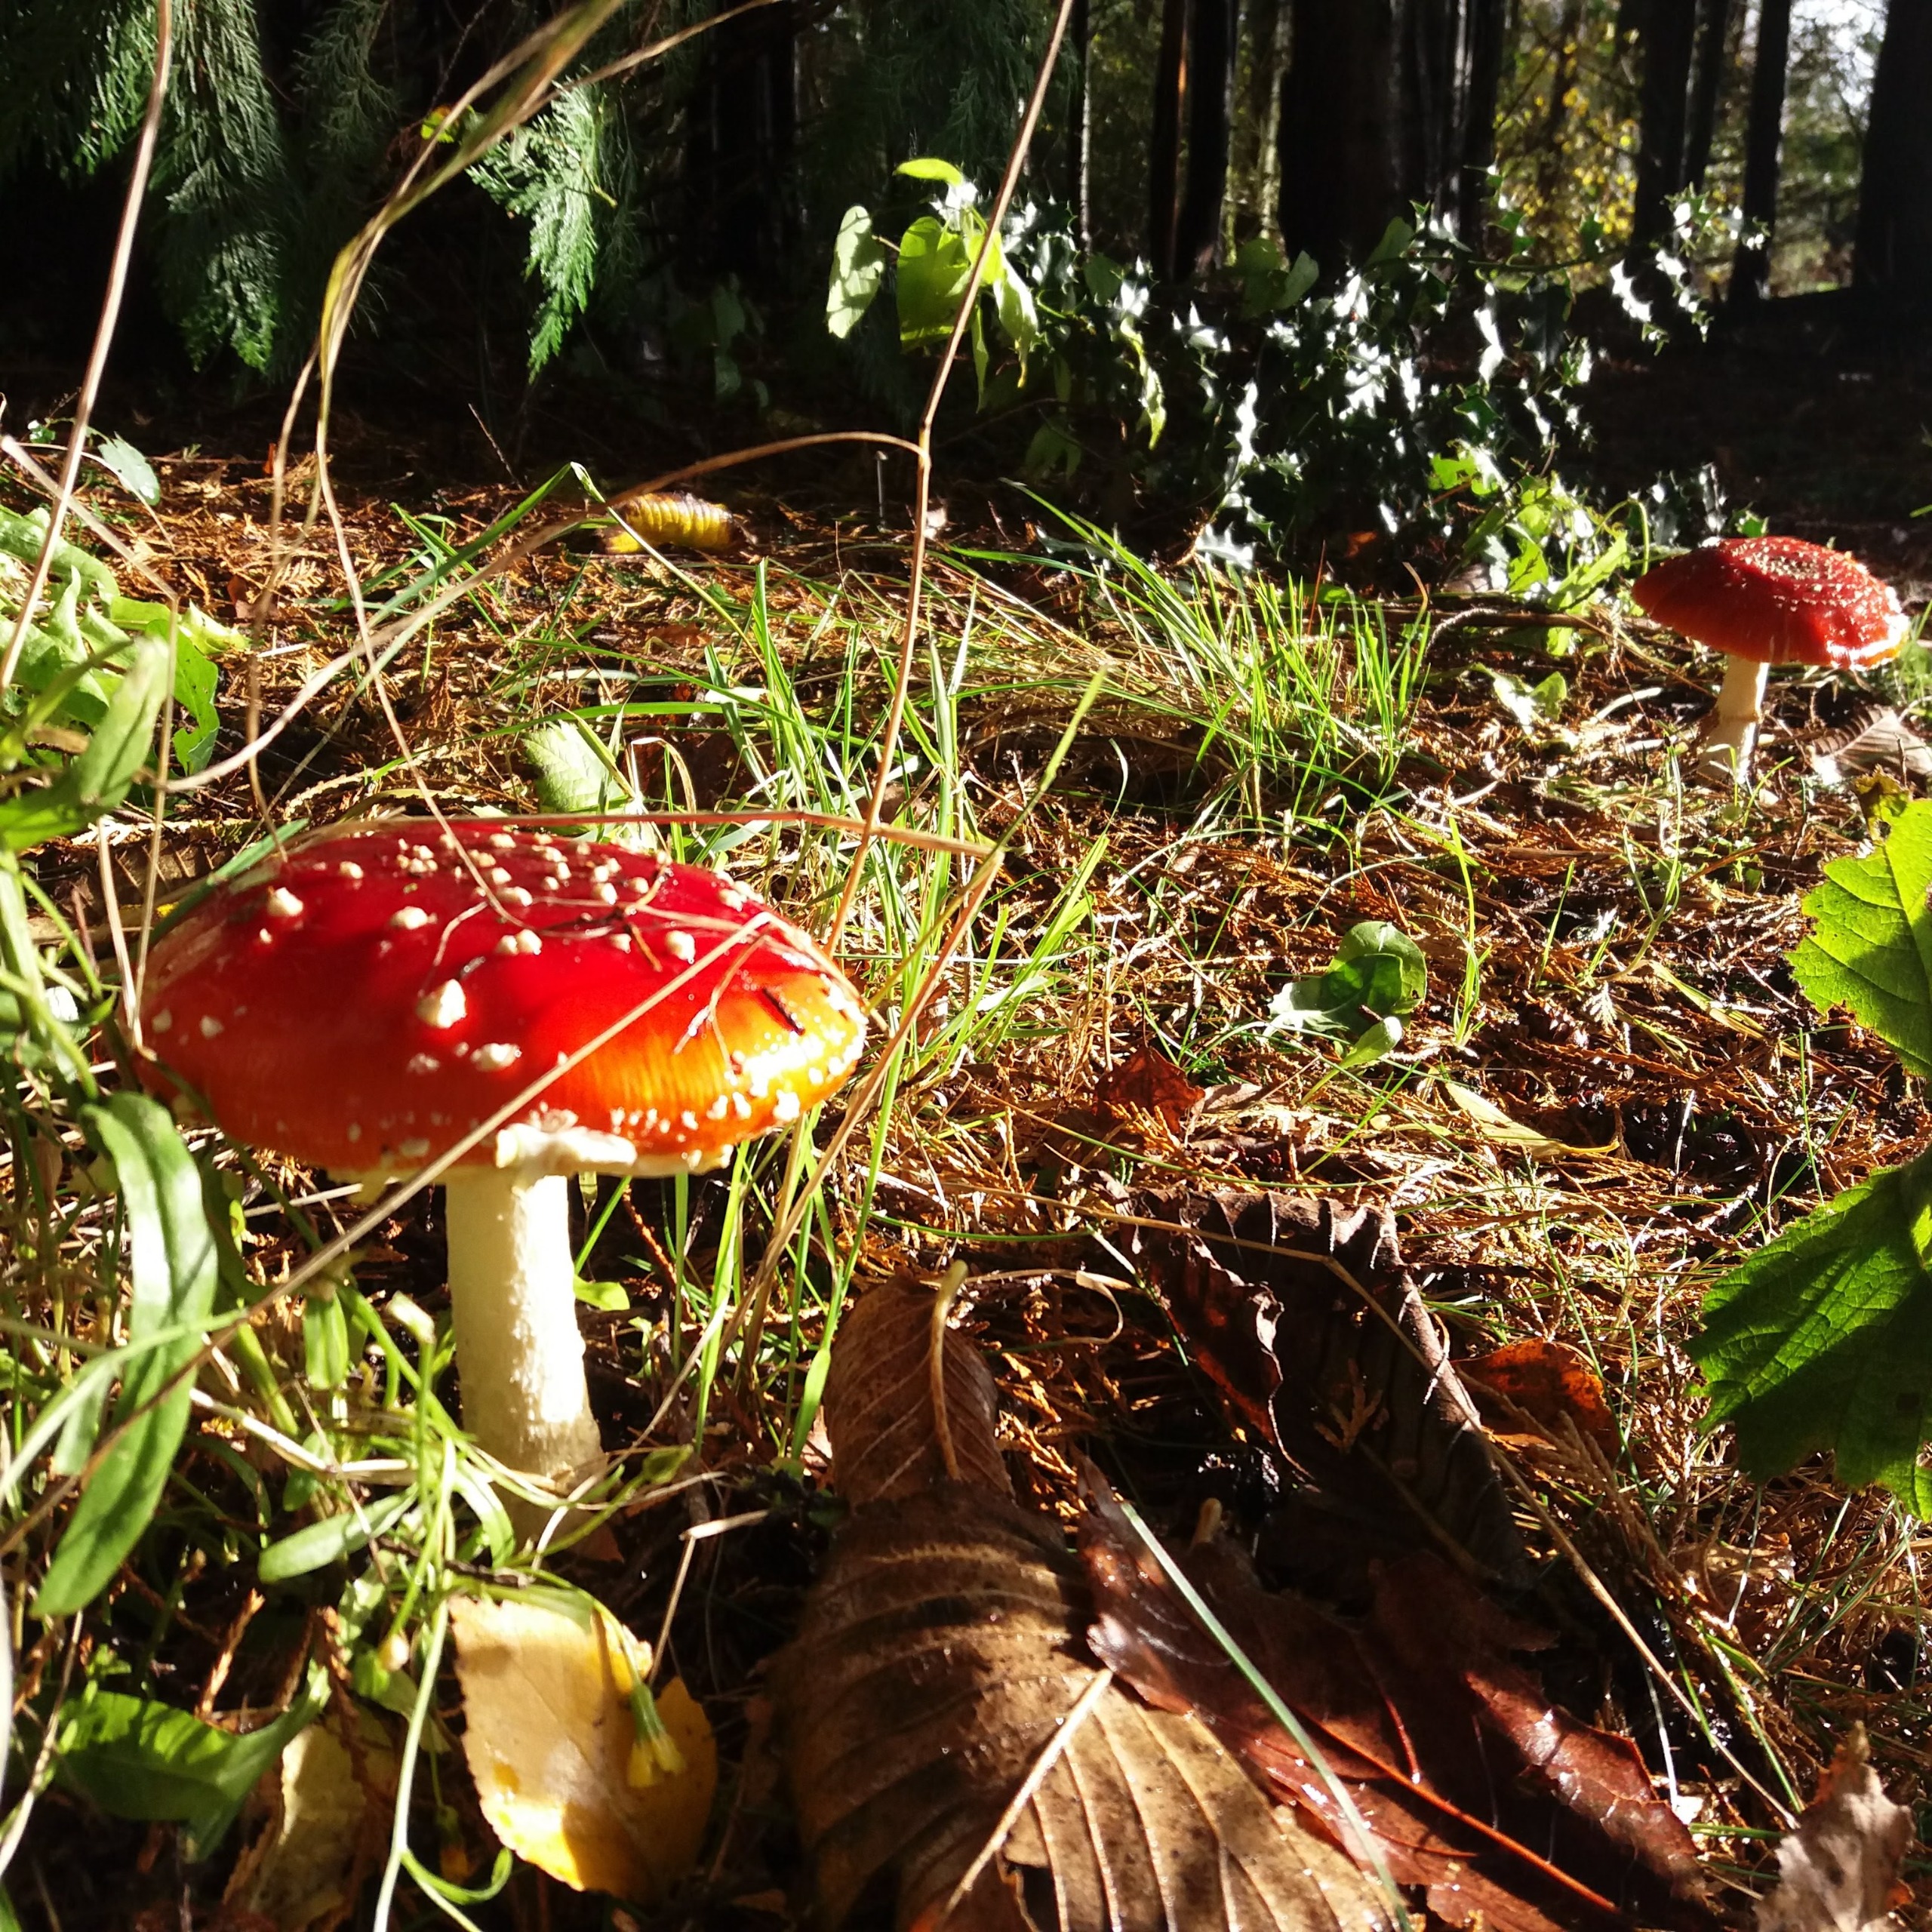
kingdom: Fungi
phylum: Basidiomycota
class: Agaricomycetes
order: Agaricales
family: Amanitaceae
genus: Amanita
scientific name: Amanita muscaria
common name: Rød fluesvamp
